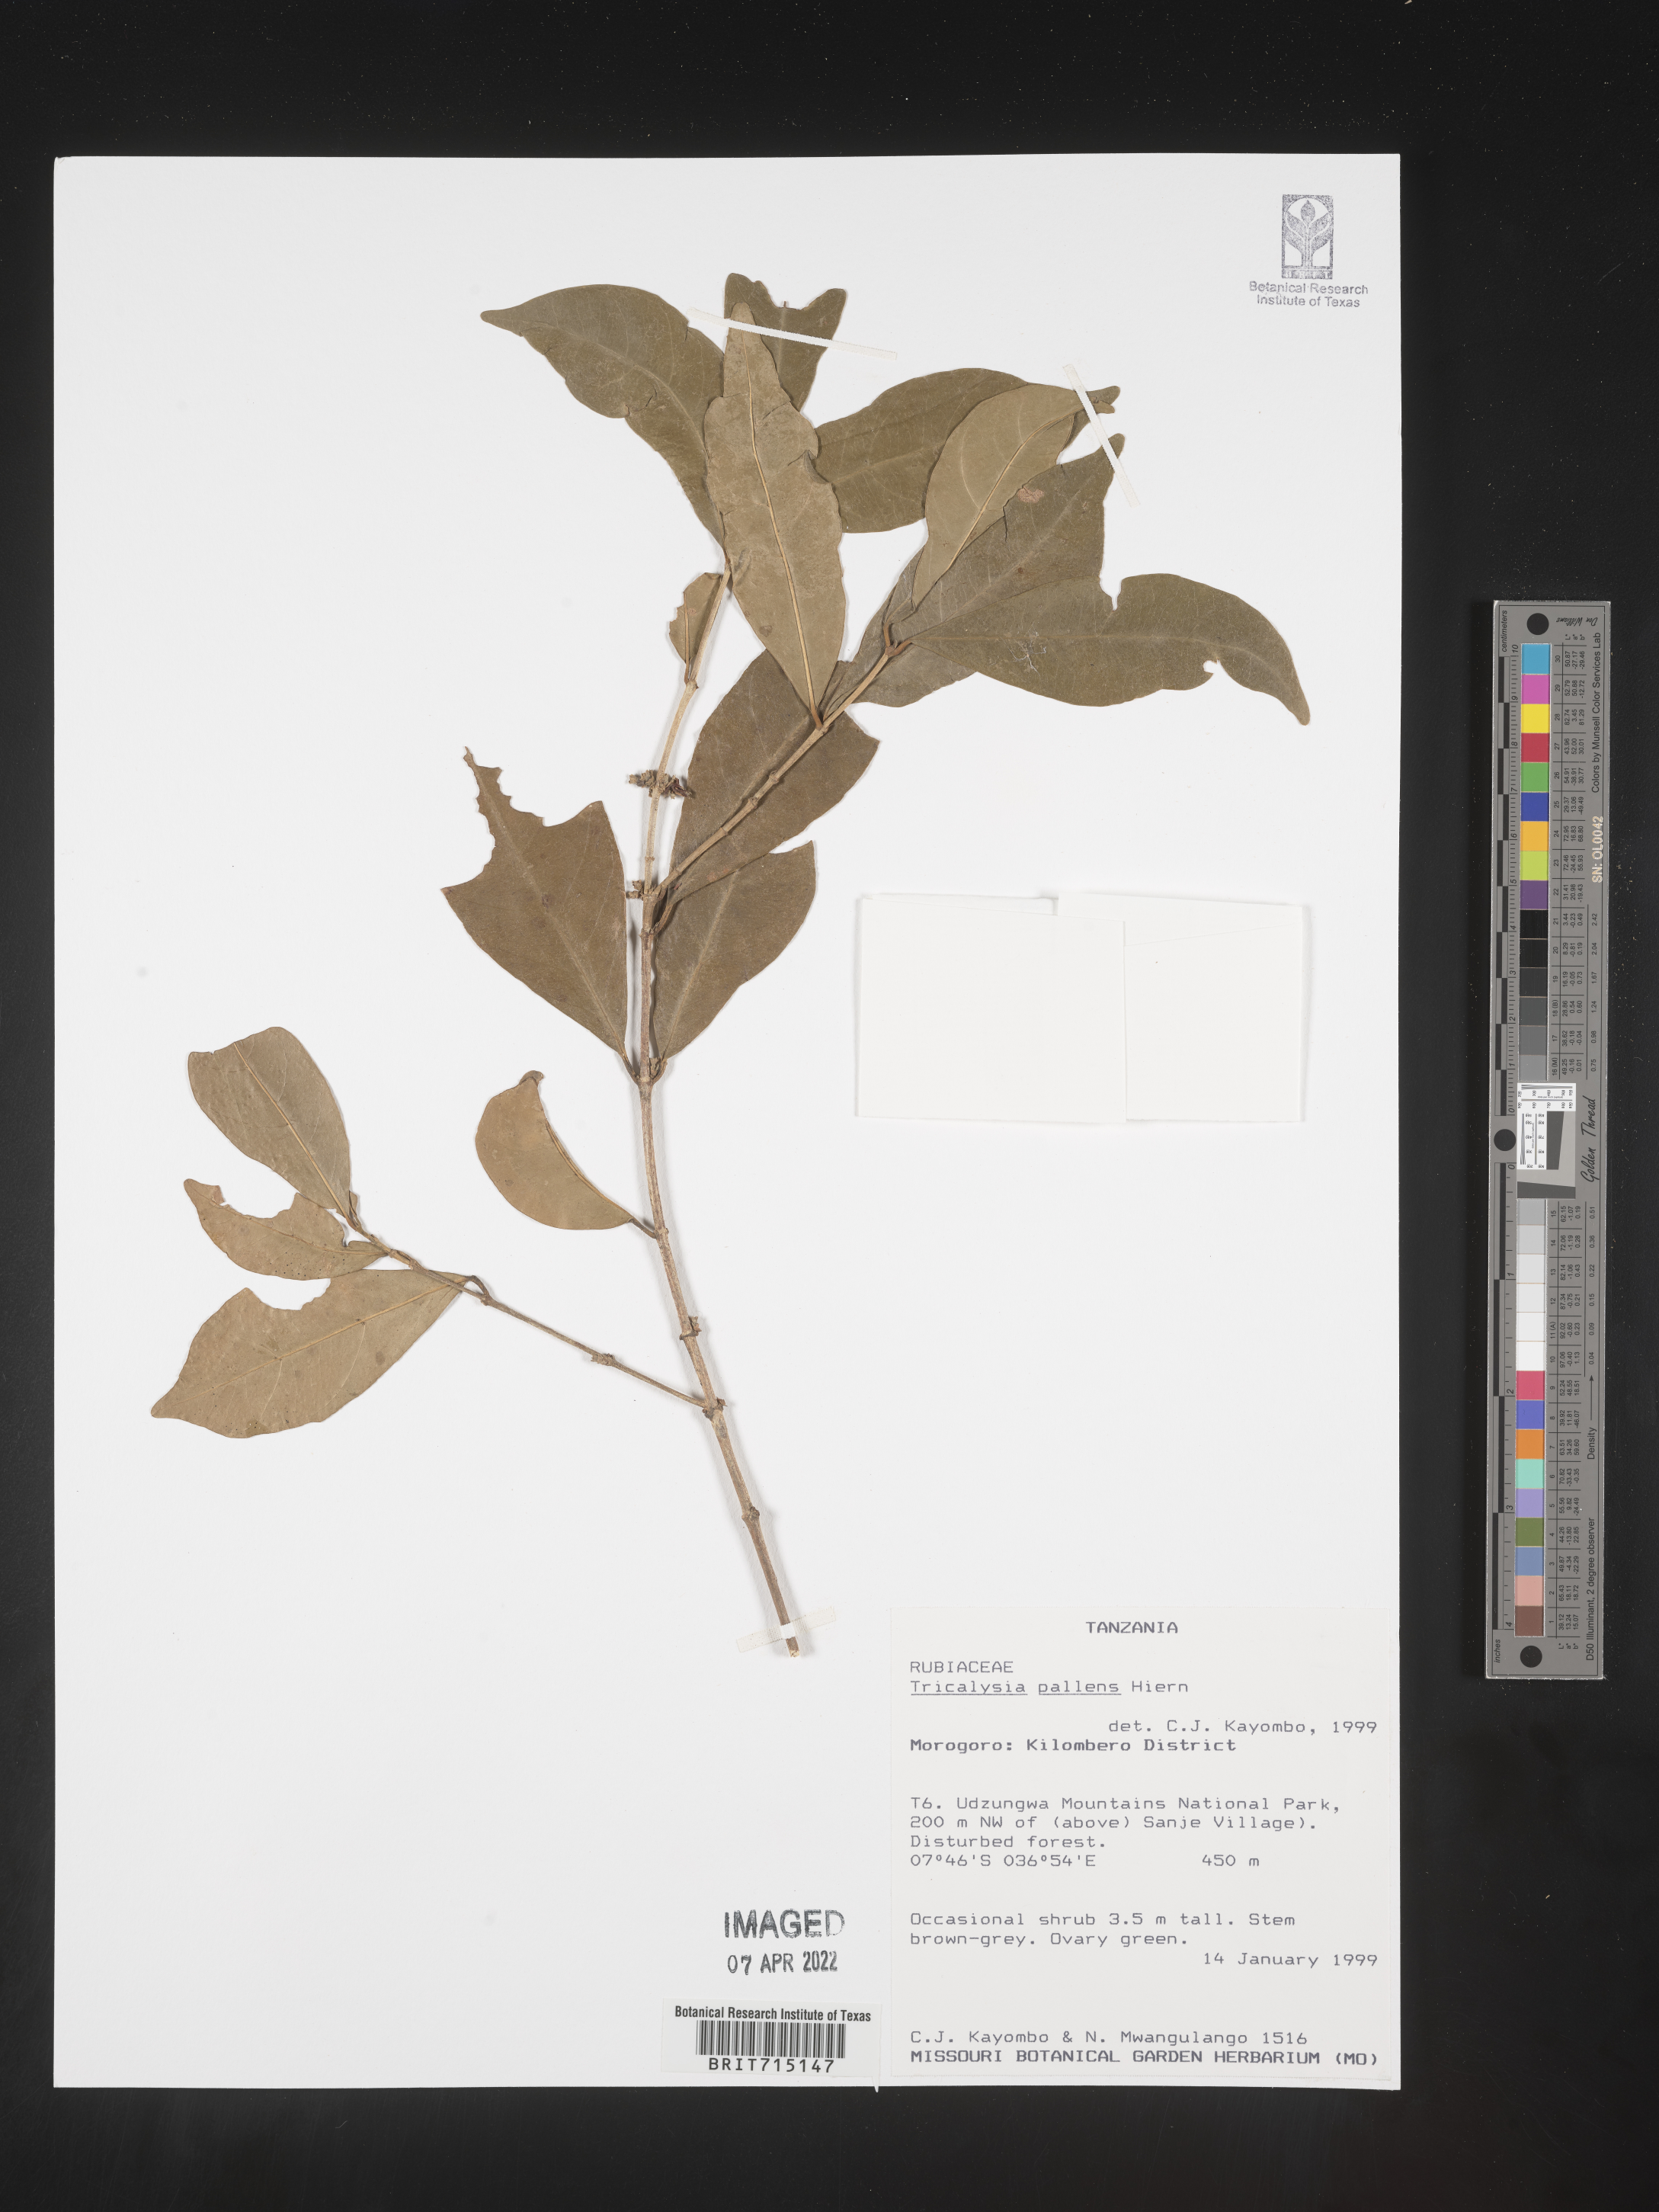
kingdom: Plantae
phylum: Tracheophyta
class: Magnoliopsida
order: Gentianales
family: Rubiaceae
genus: Tricalysia
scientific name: Tricalysia
